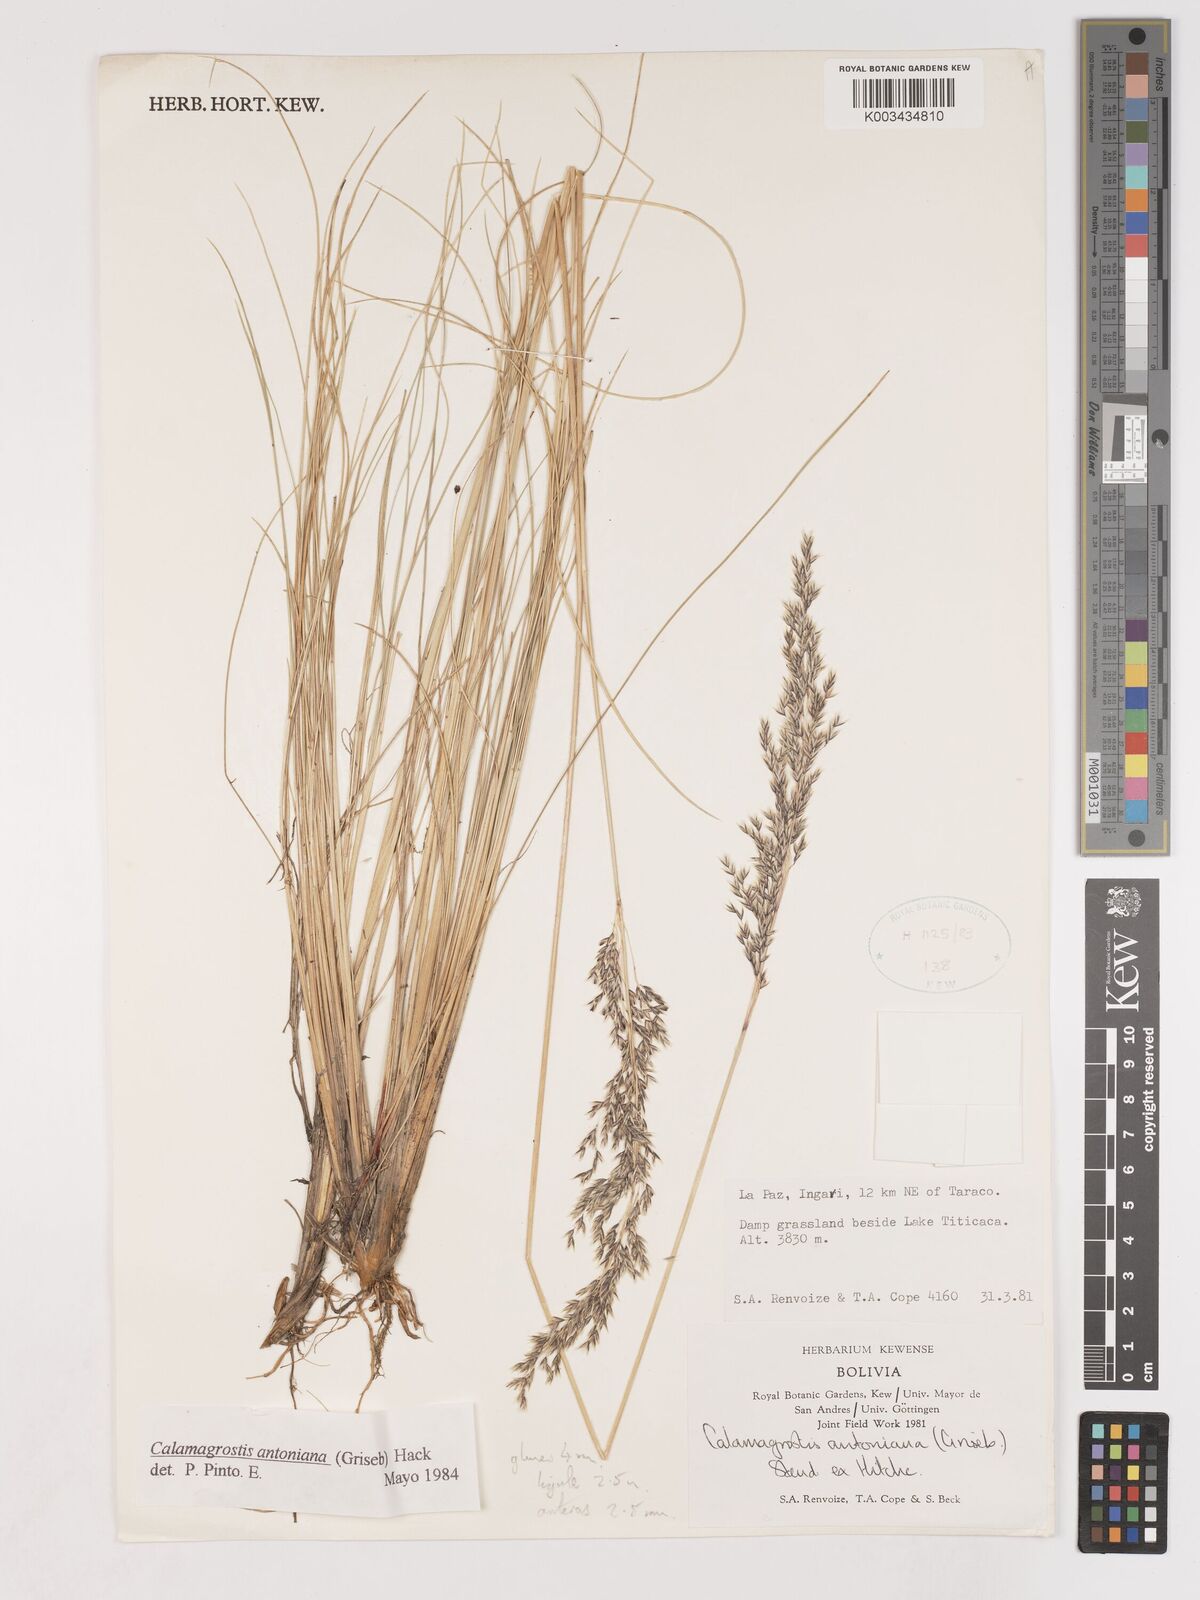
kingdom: Plantae
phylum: Tracheophyta
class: Liliopsida
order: Poales
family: Poaceae
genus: Cinnagrostis
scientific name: Cinnagrostis orbignyana
